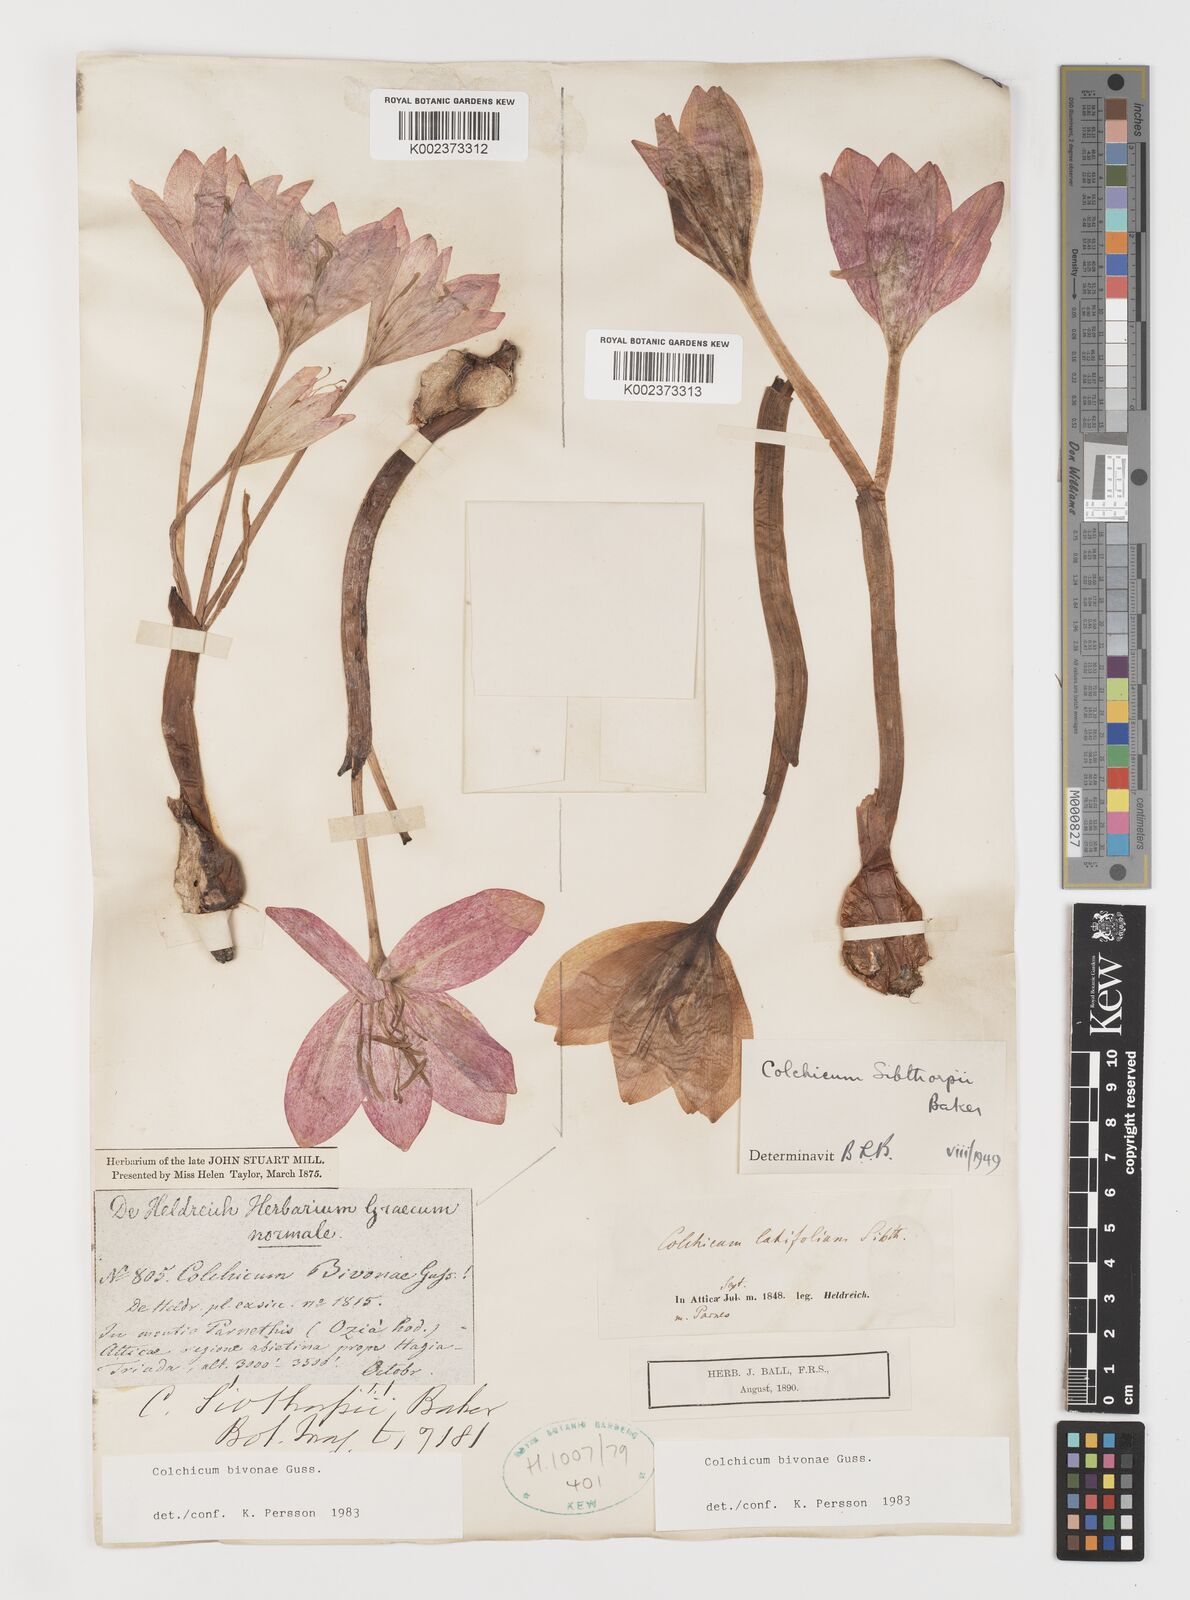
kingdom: Plantae
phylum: Tracheophyta
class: Liliopsida
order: Liliales
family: Colchicaceae
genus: Colchicum
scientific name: Colchicum bivonae
